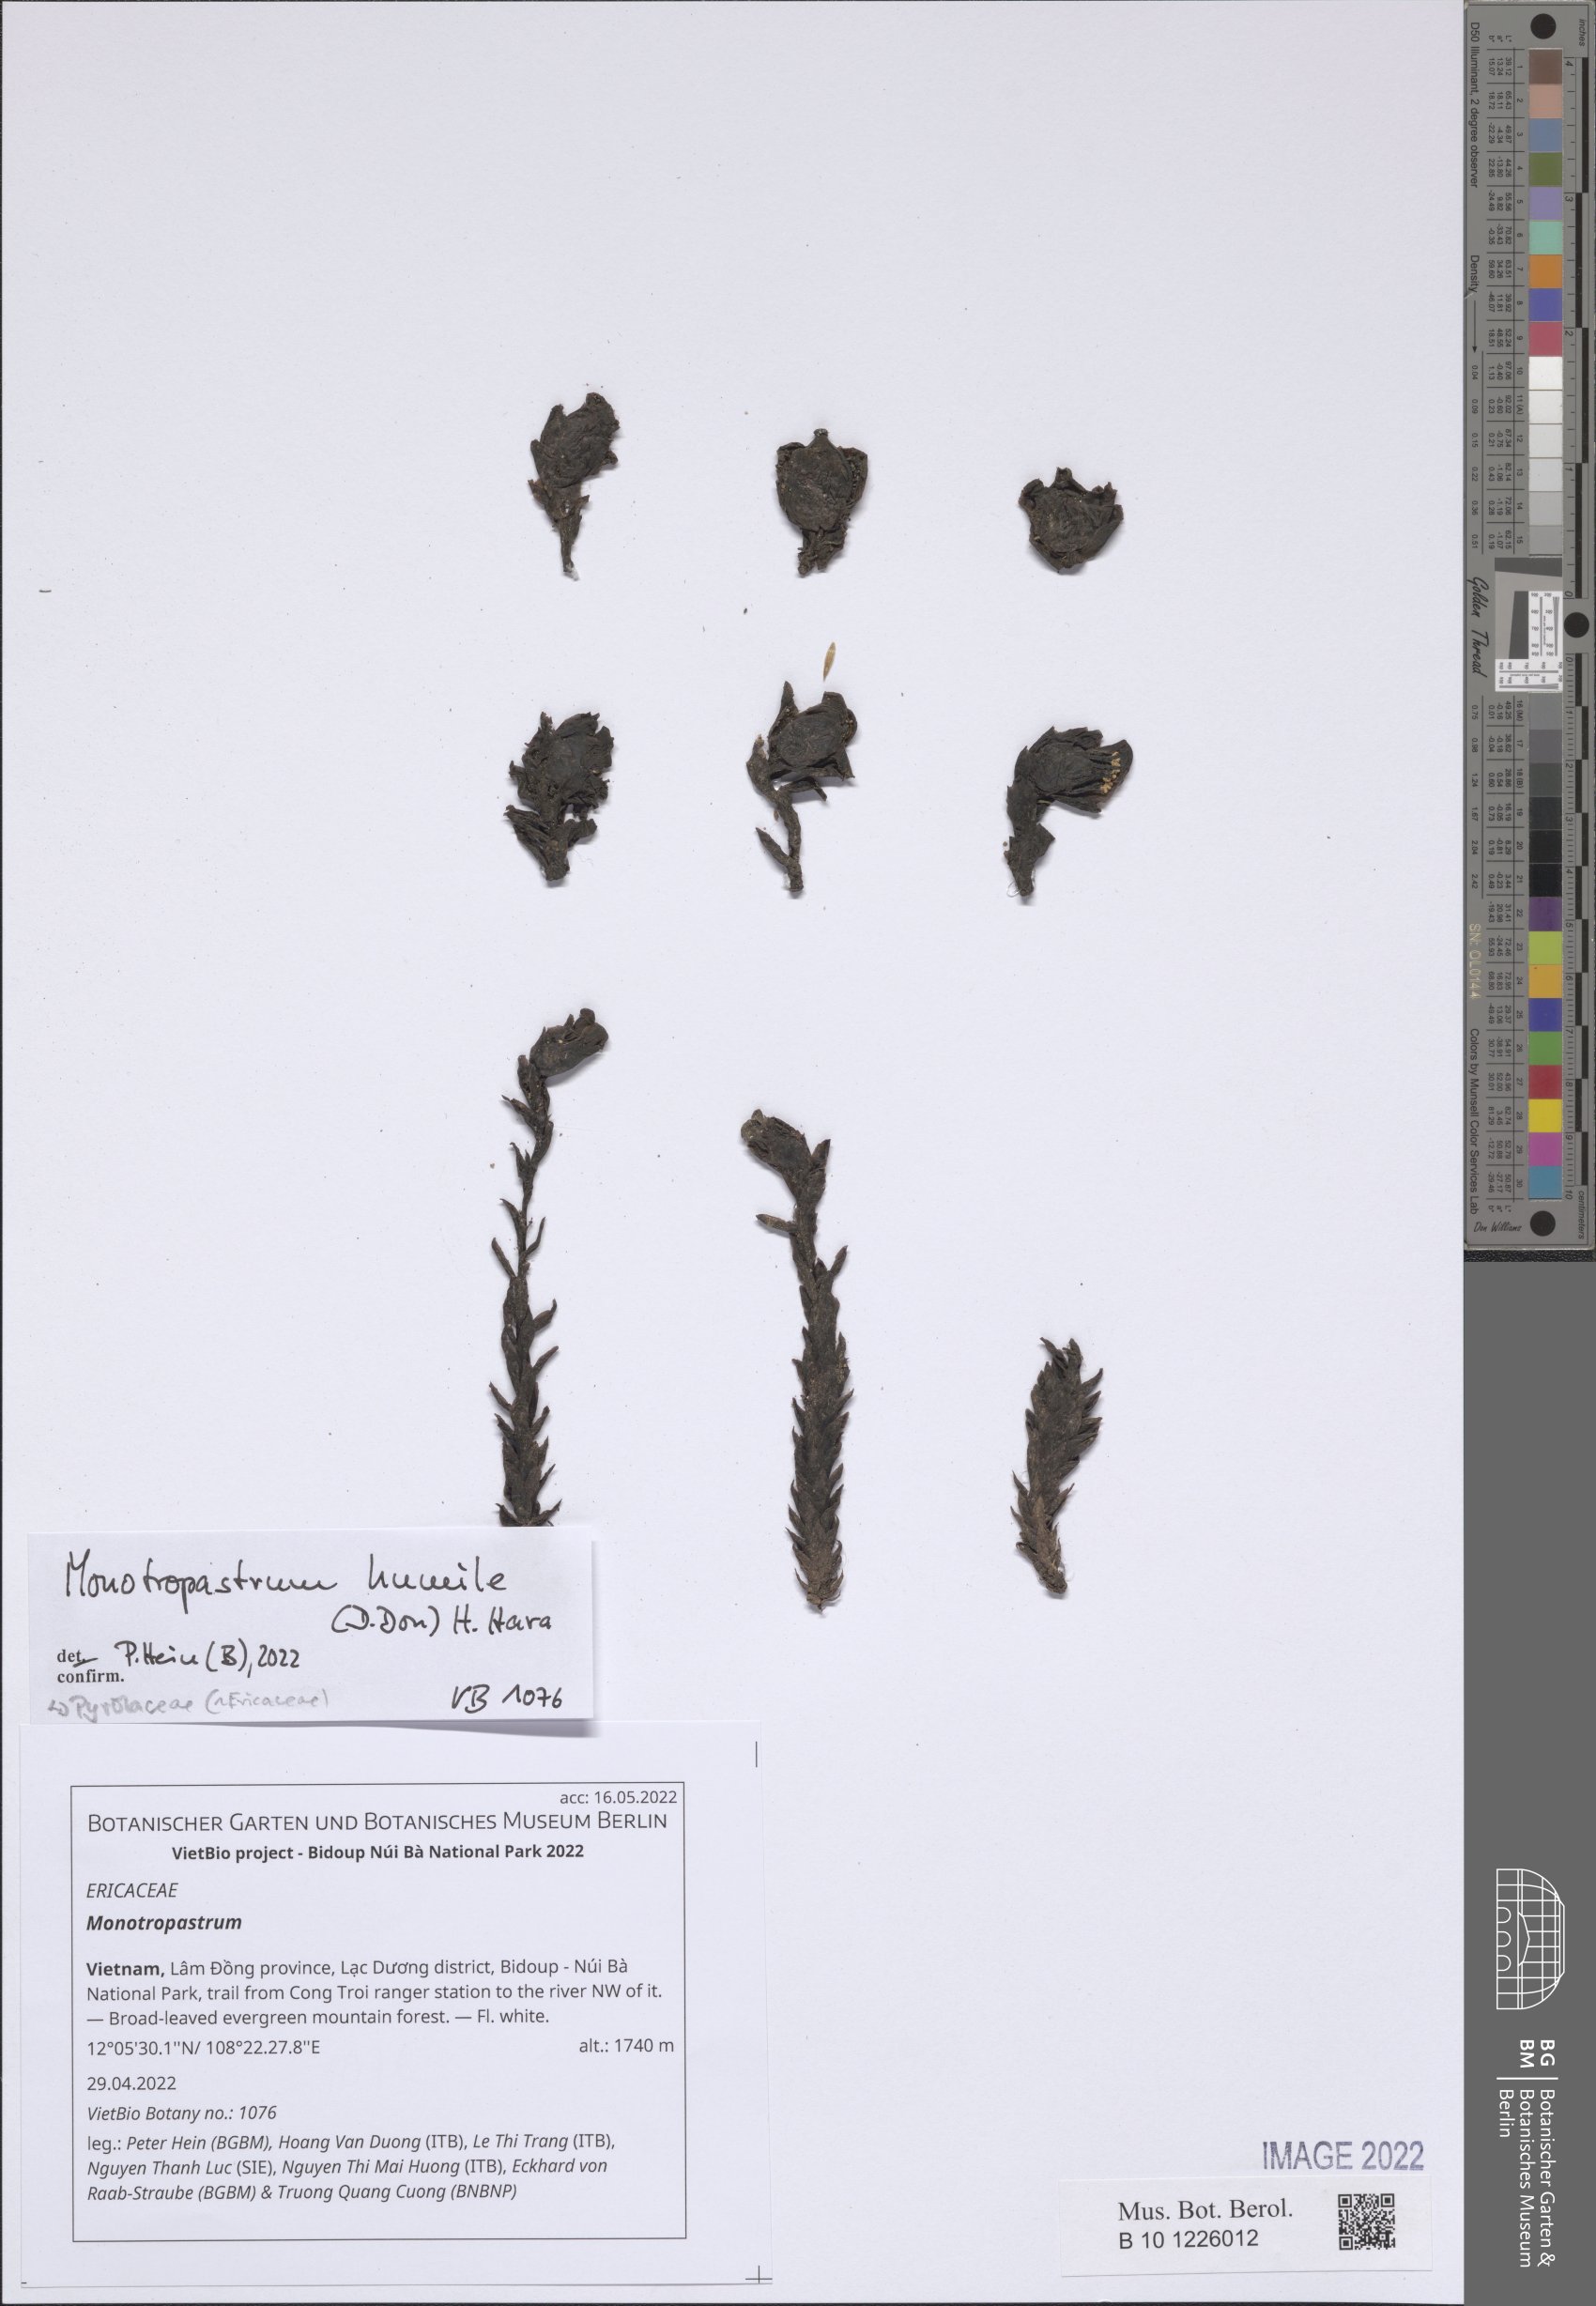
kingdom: Plantae
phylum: Tracheophyta
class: Magnoliopsida
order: Ericales
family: Ericaceae
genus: Monotropastrum
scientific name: Monotropastrum
